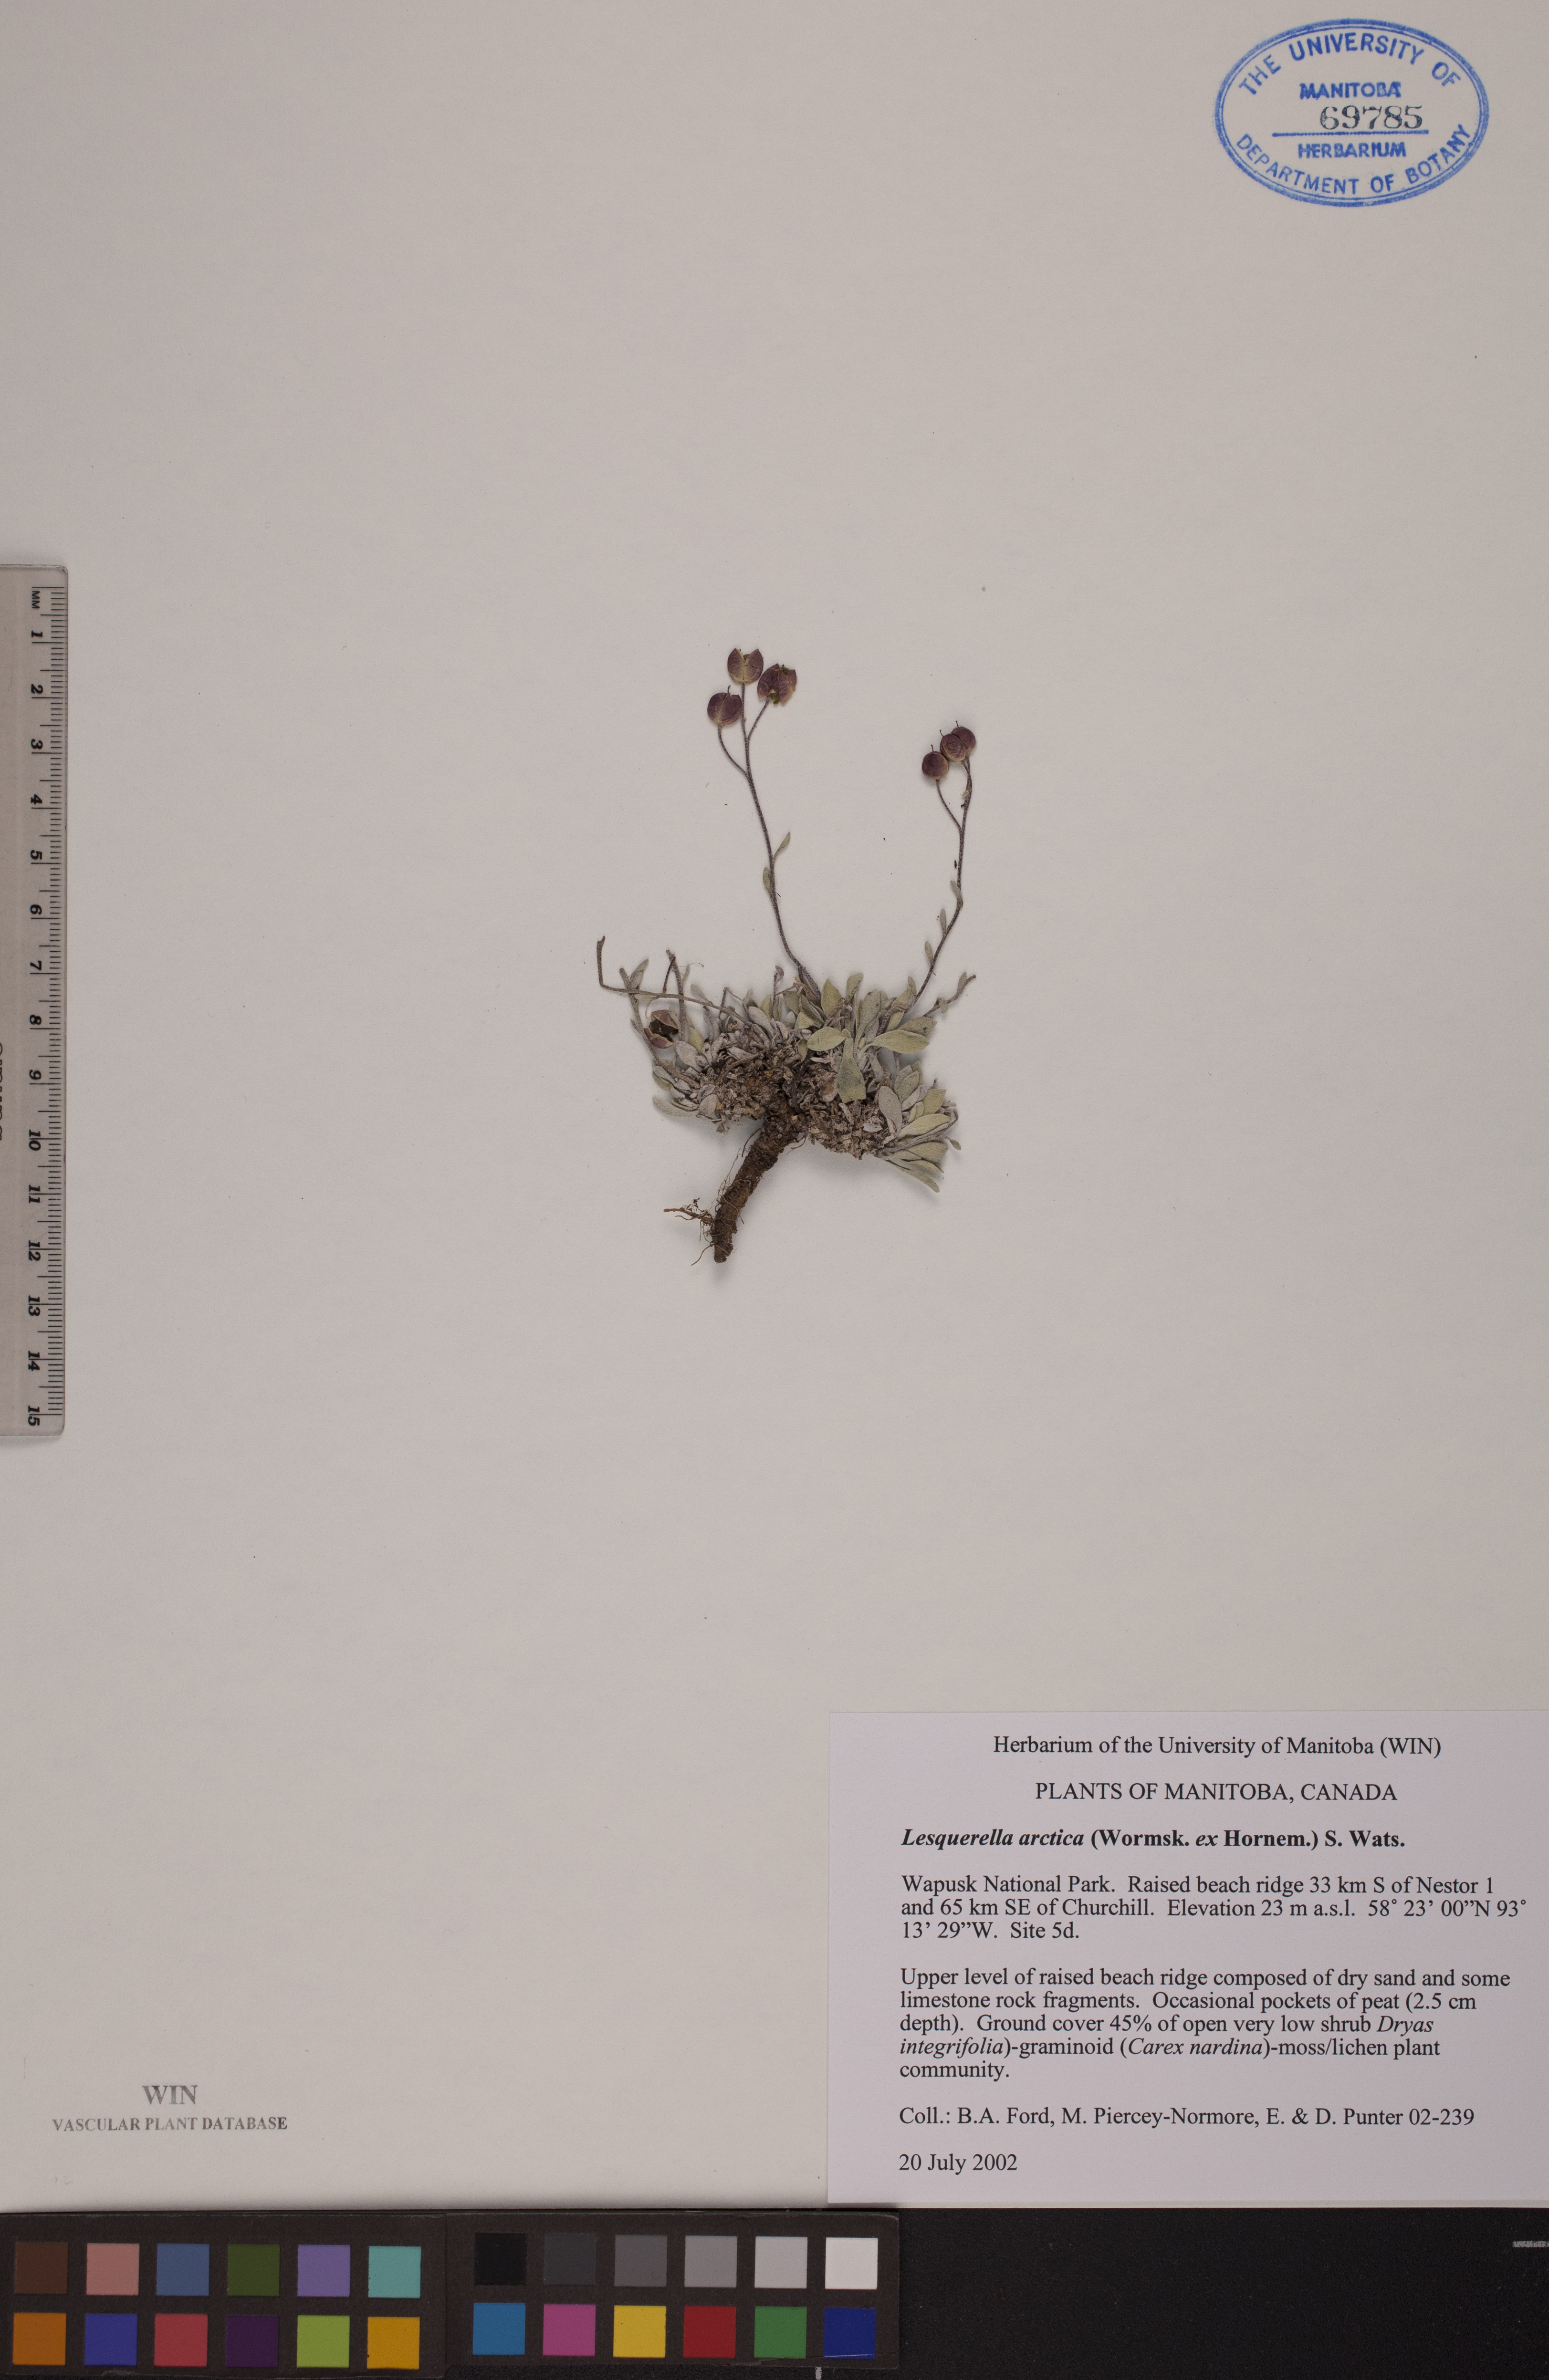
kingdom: Plantae
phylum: Tracheophyta
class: Magnoliopsida
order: Brassicales
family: Brassicaceae
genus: Physaria
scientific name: Physaria arctica
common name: Arctic bladderpod
